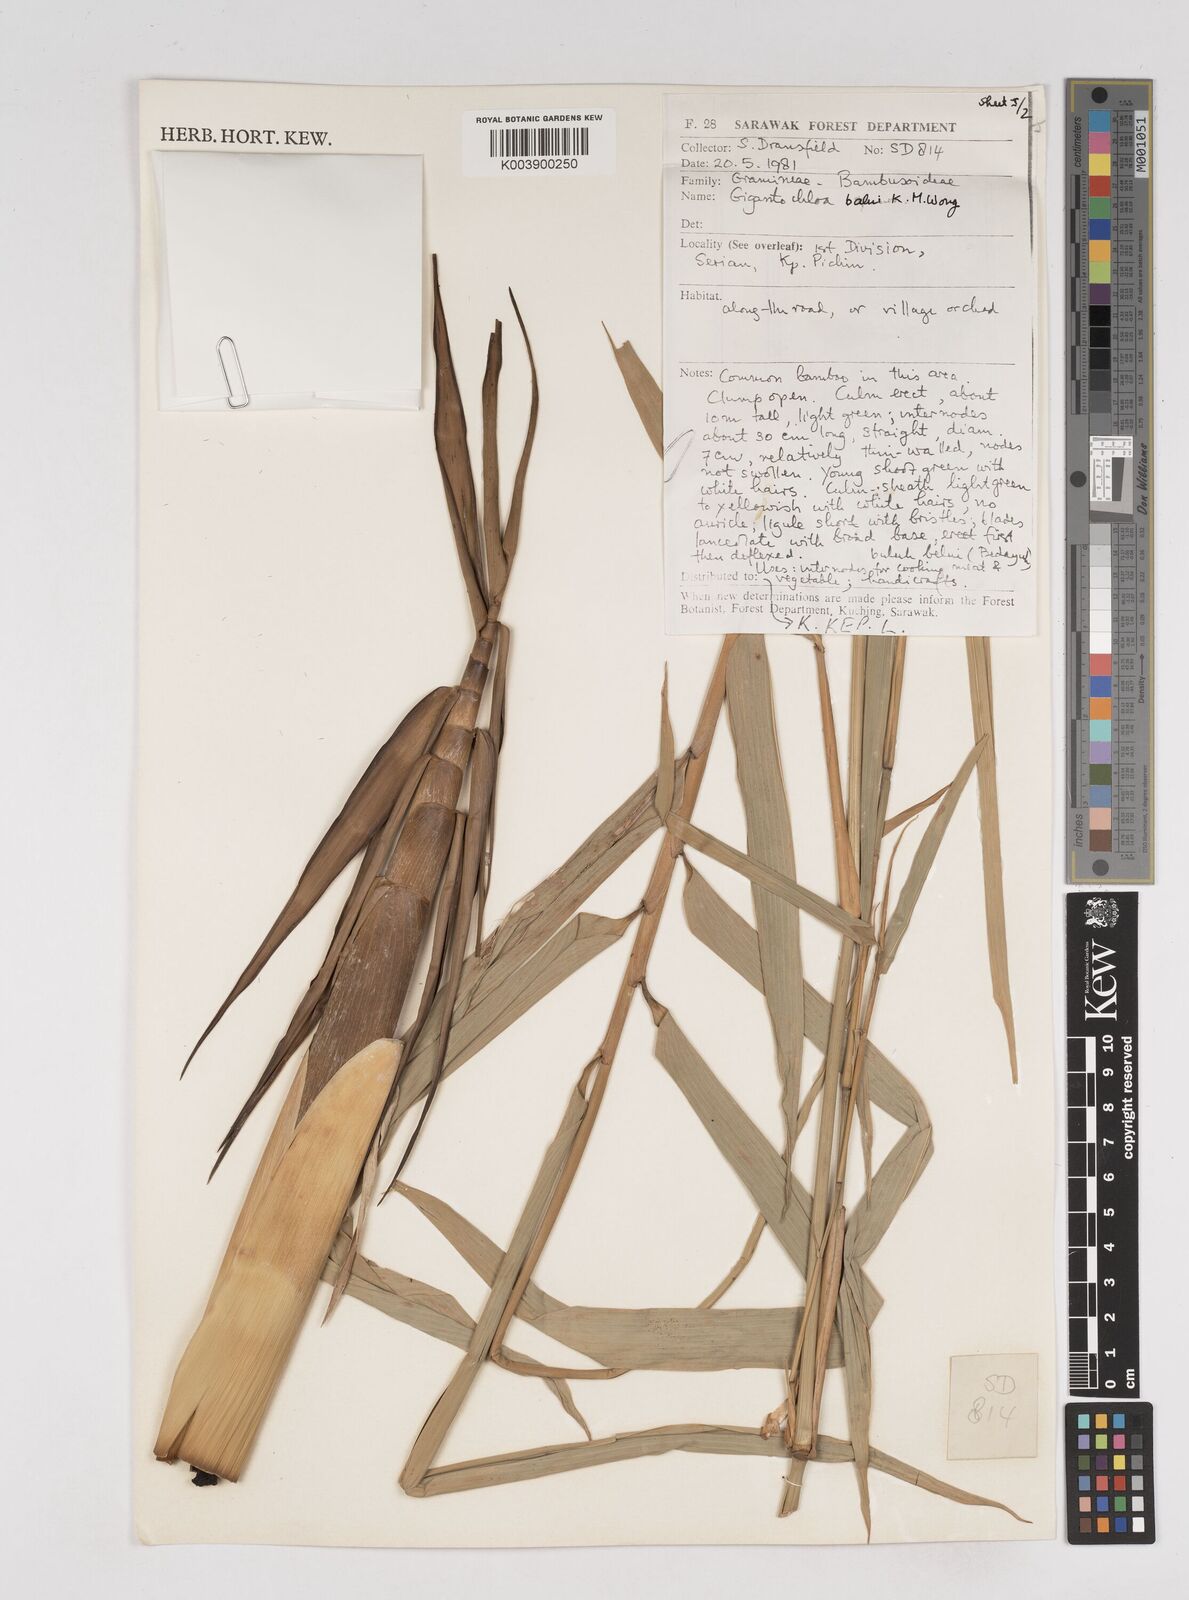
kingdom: Plantae
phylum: Tracheophyta
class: Liliopsida
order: Poales
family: Poaceae
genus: Gigantochloa
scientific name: Gigantochloa
